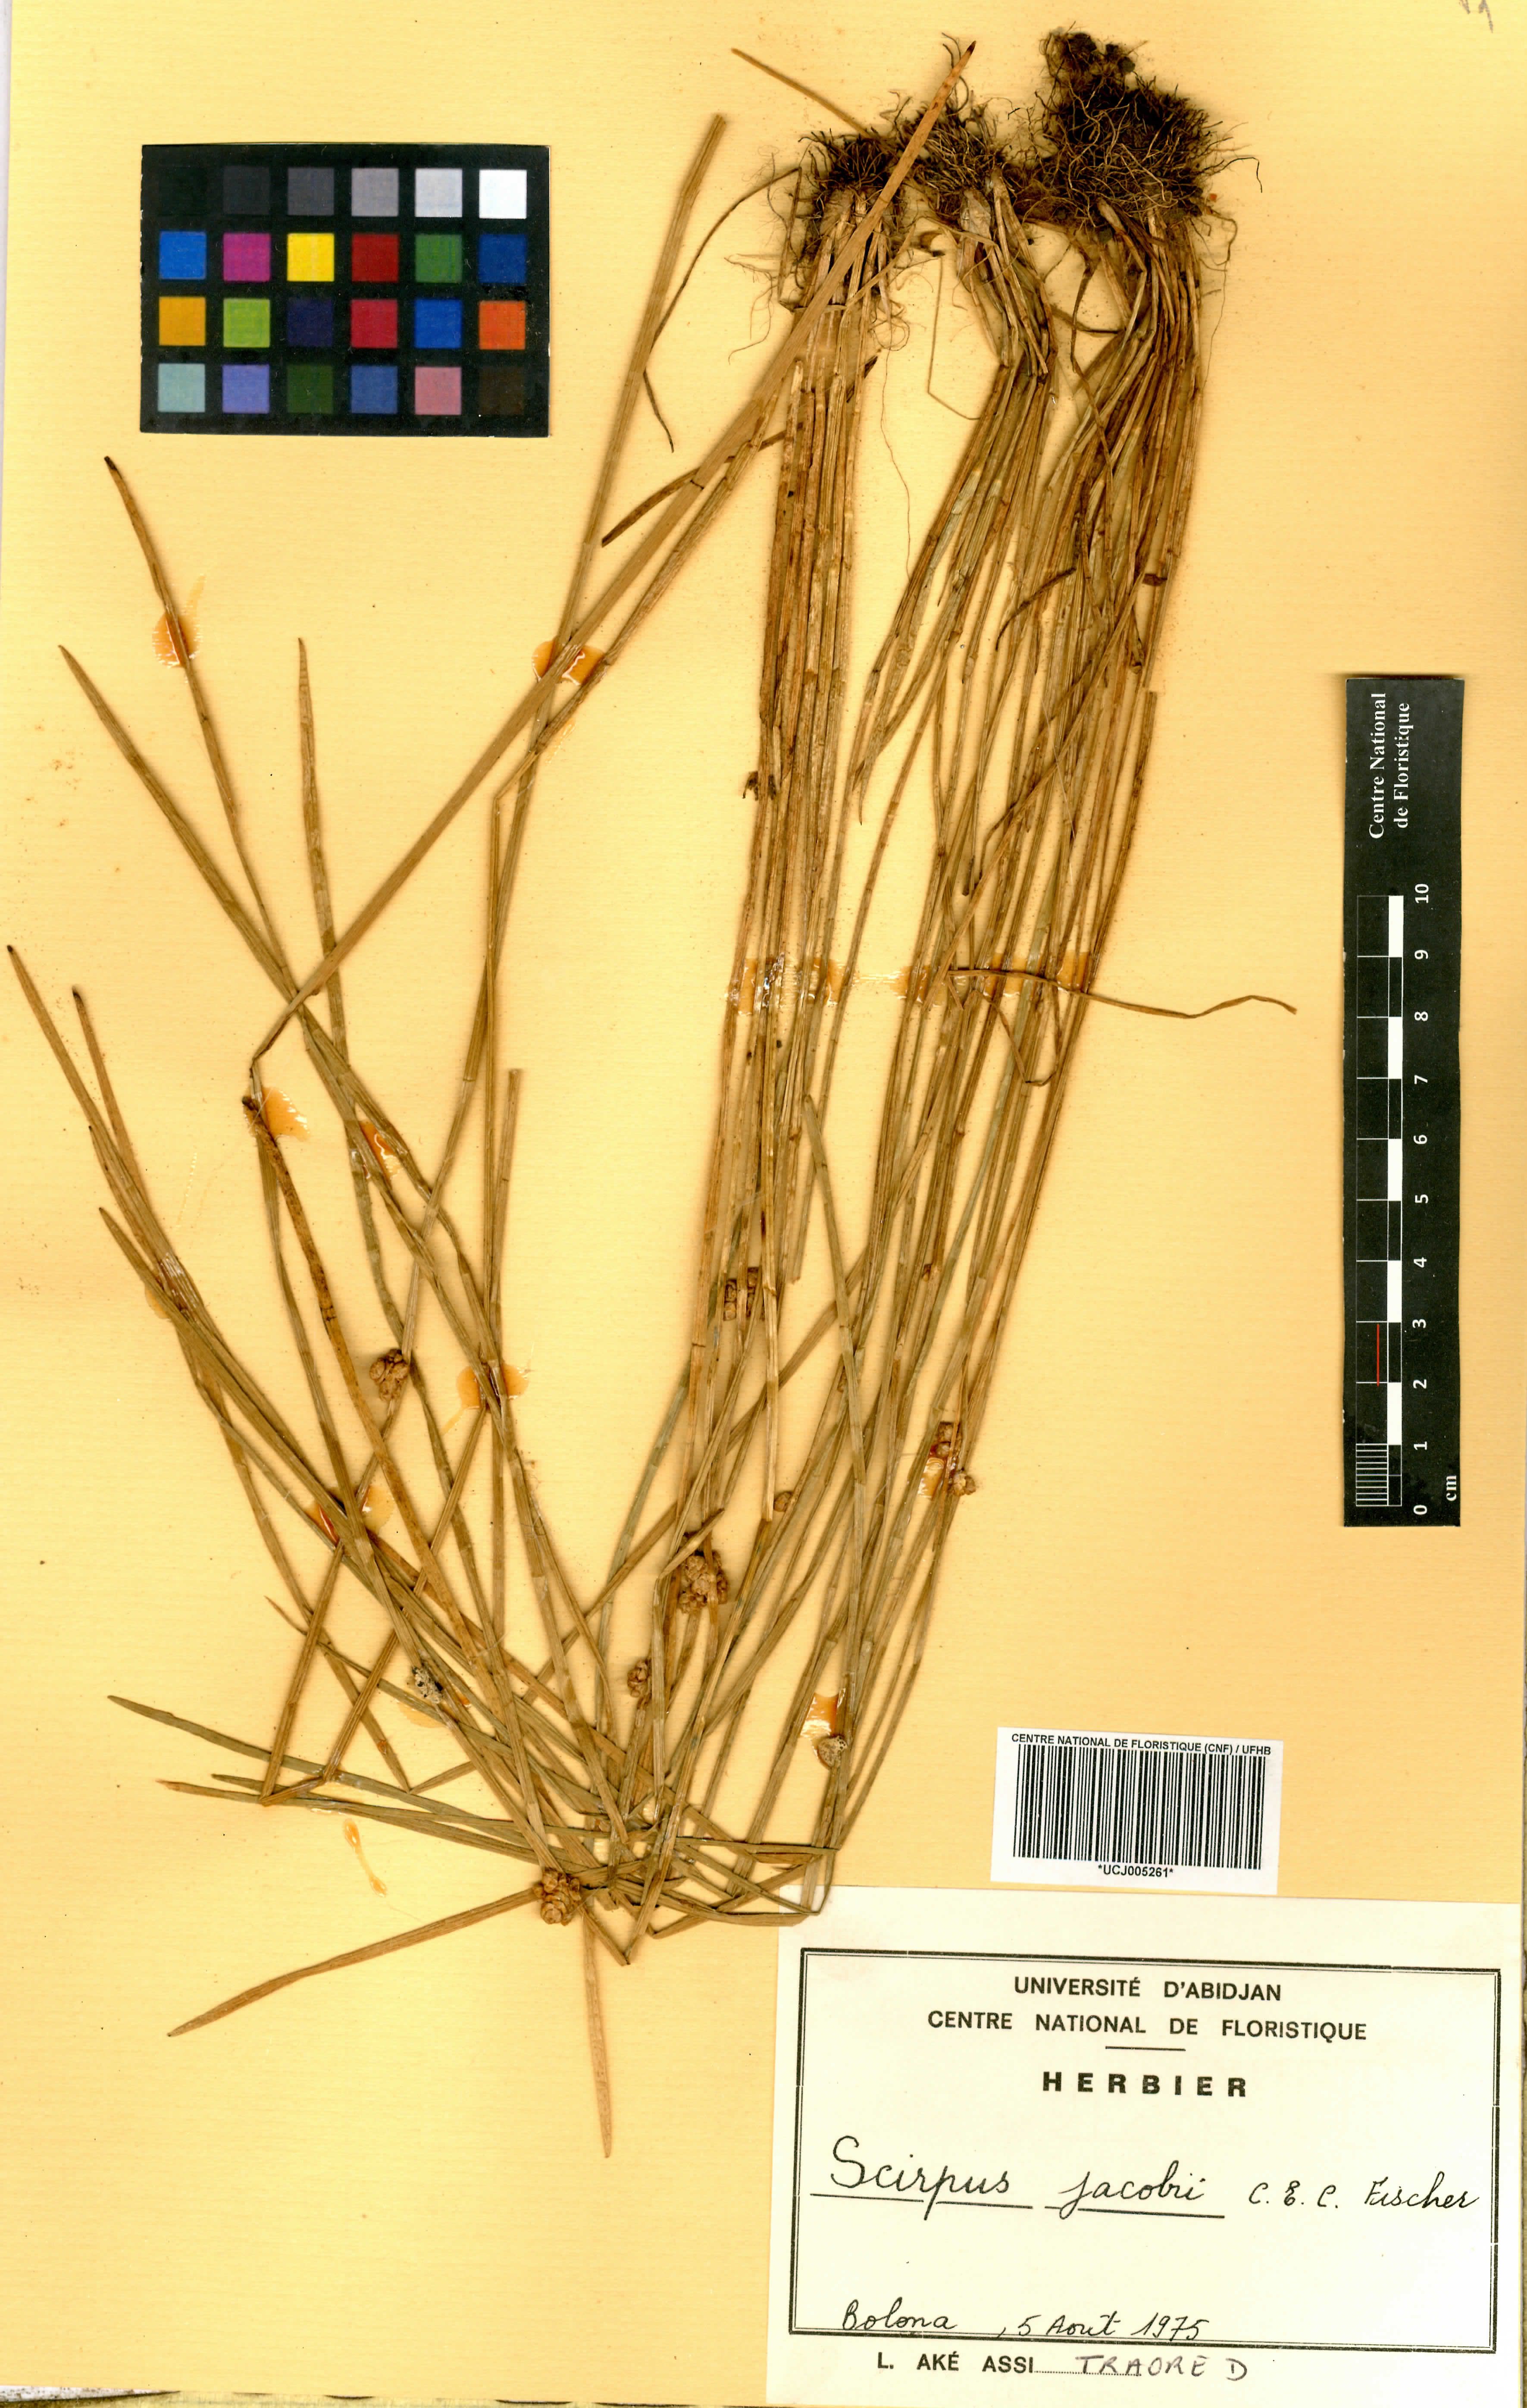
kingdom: Plantae
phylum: Tracheophyta
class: Liliopsida
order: Poales
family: Cyperaceae
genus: Schoenoplectiella
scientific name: Schoenoplectiella senegalensis
